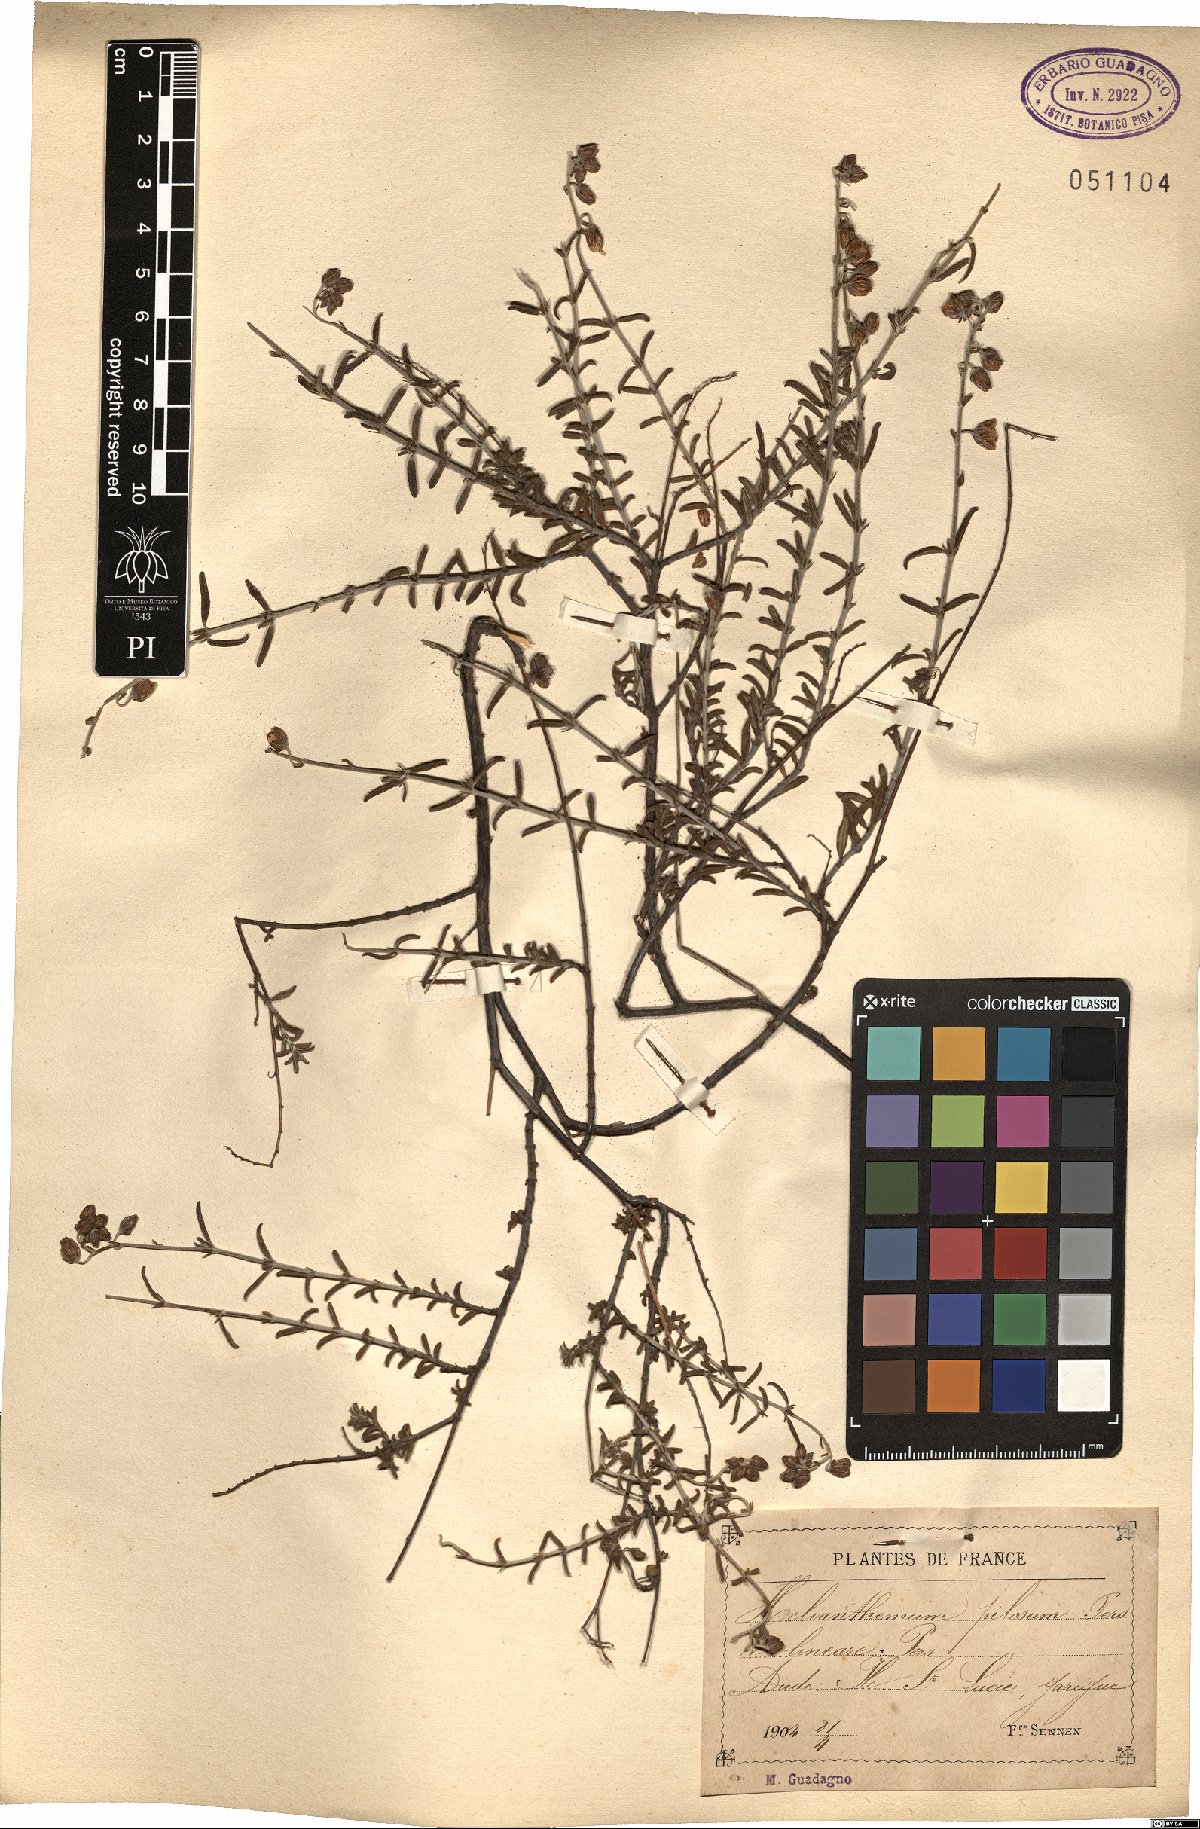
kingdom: Plantae
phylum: Tracheophyta
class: Magnoliopsida
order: Malvales
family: Cistaceae
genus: Fumana
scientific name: Fumana laevis
